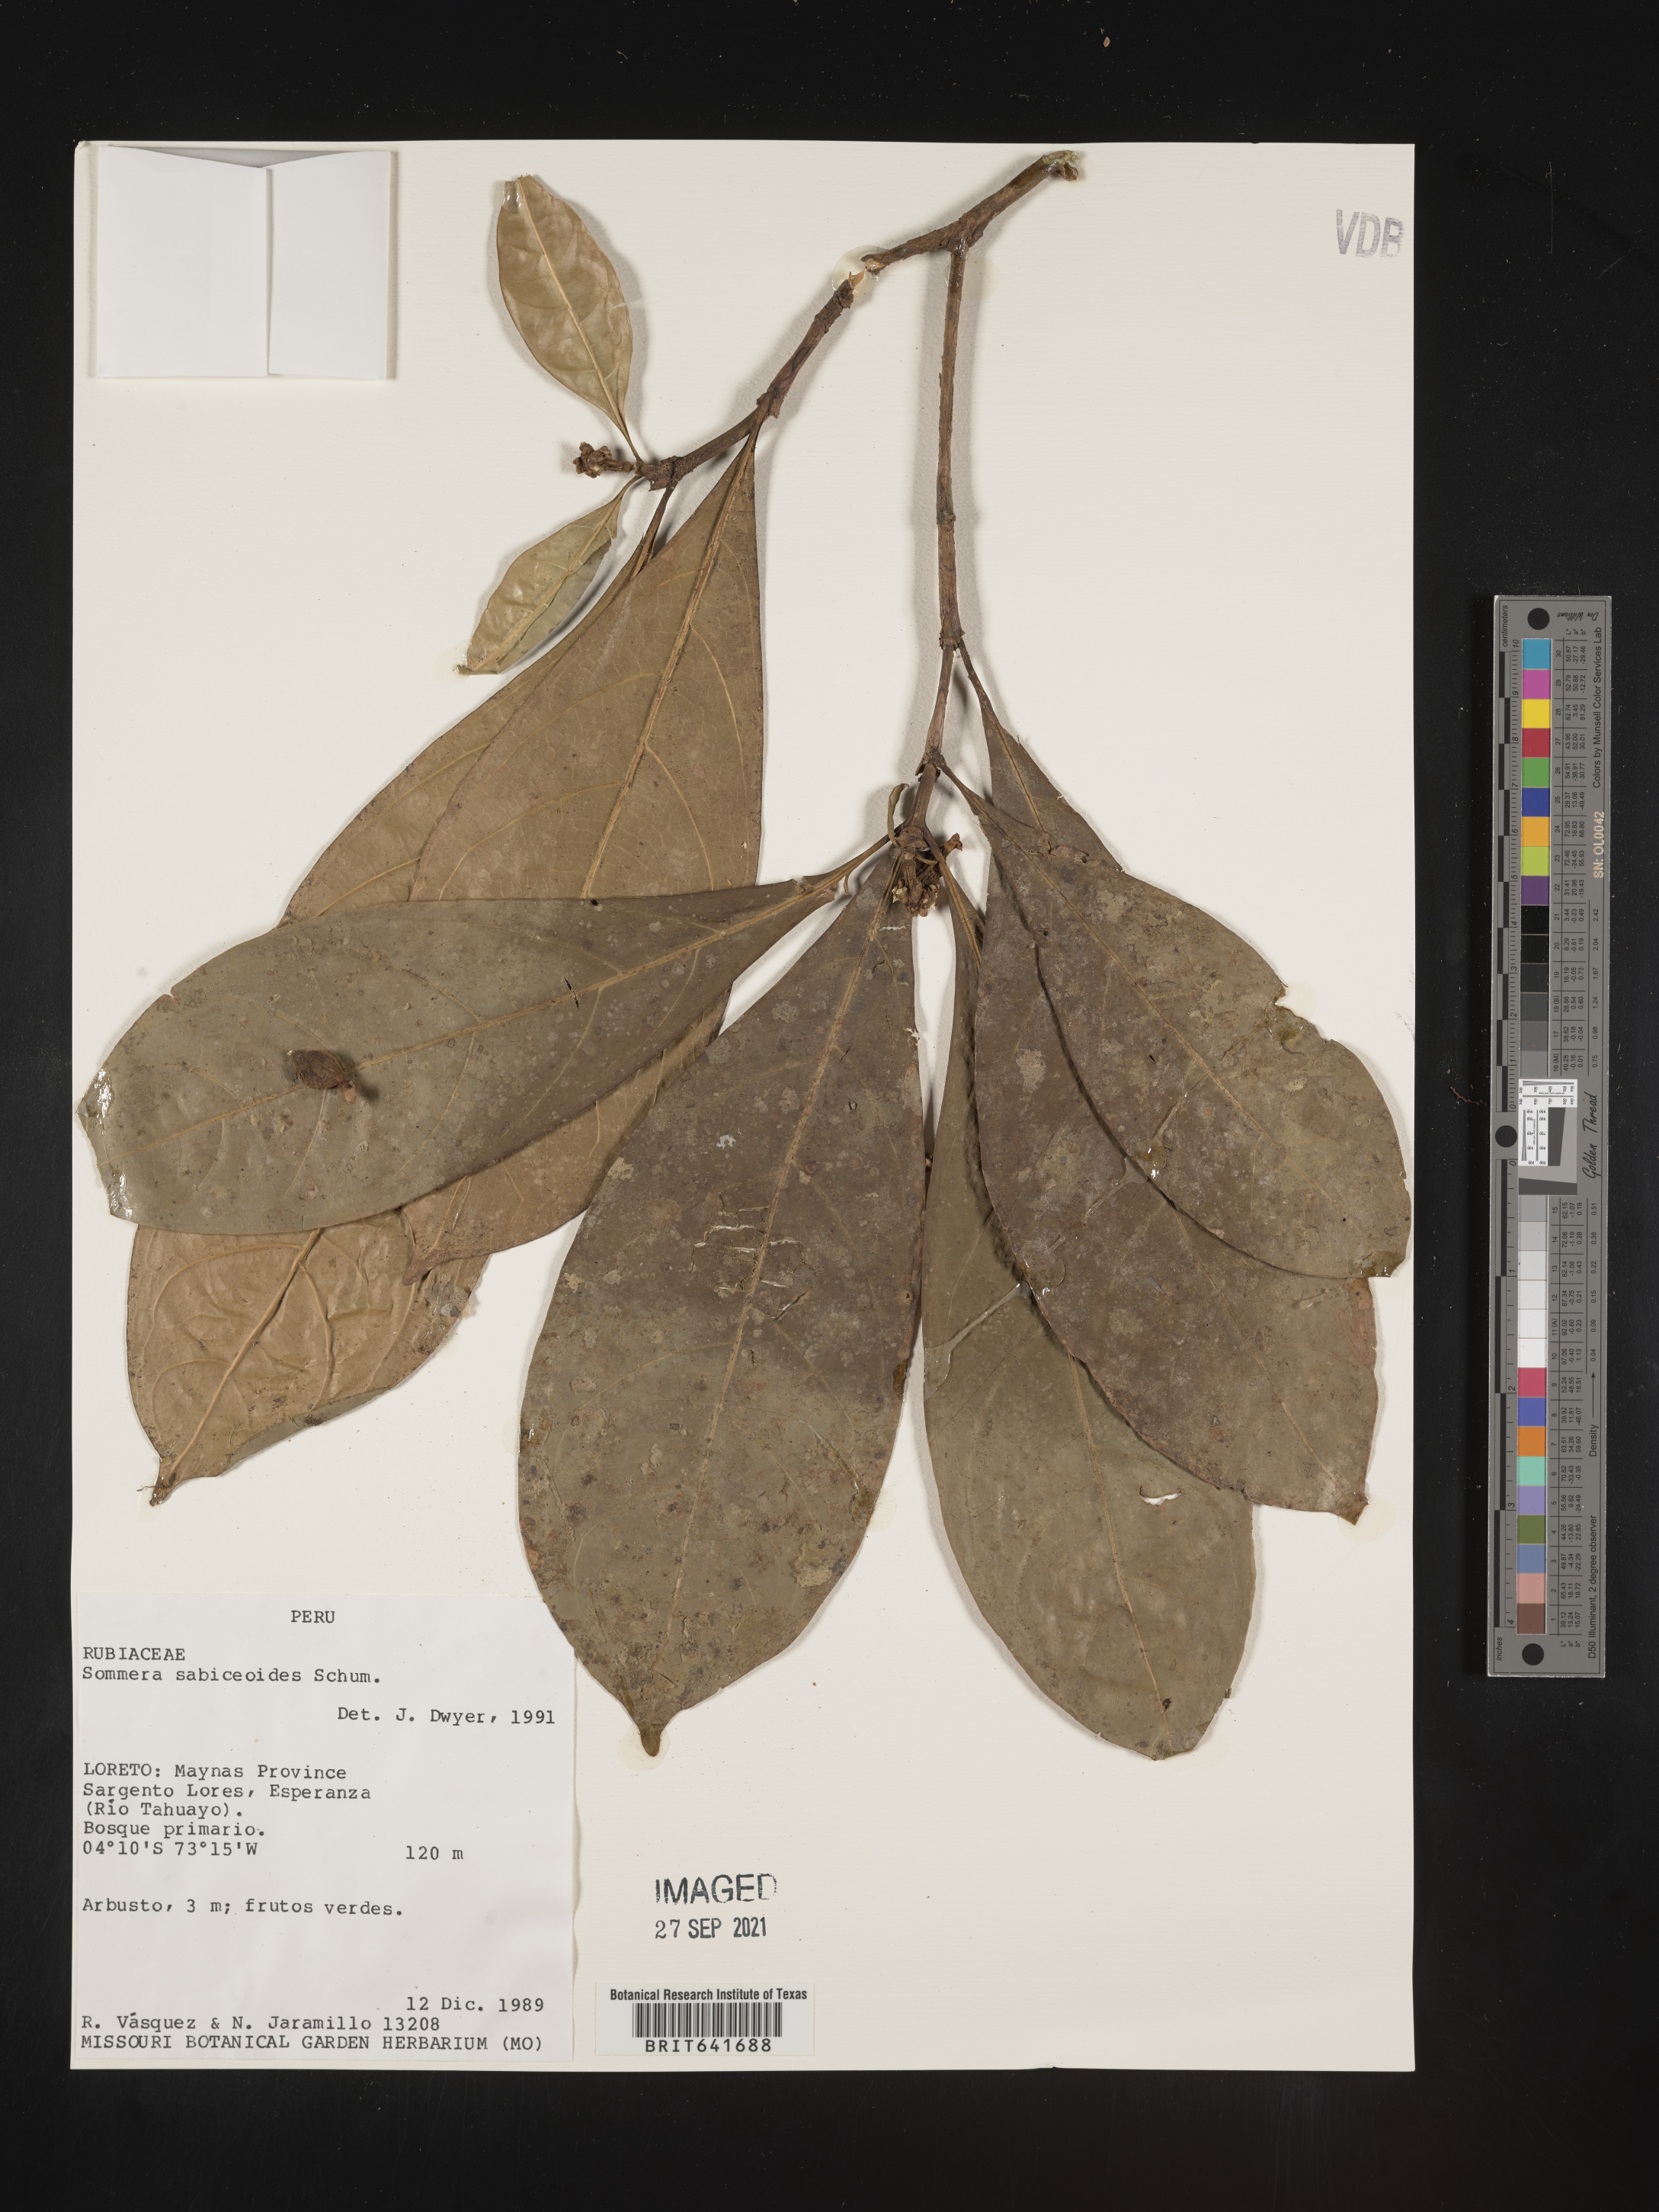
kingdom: Plantae
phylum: Tracheophyta
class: Magnoliopsida
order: Gentianales
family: Rubiaceae
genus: Sommera
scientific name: Sommera
